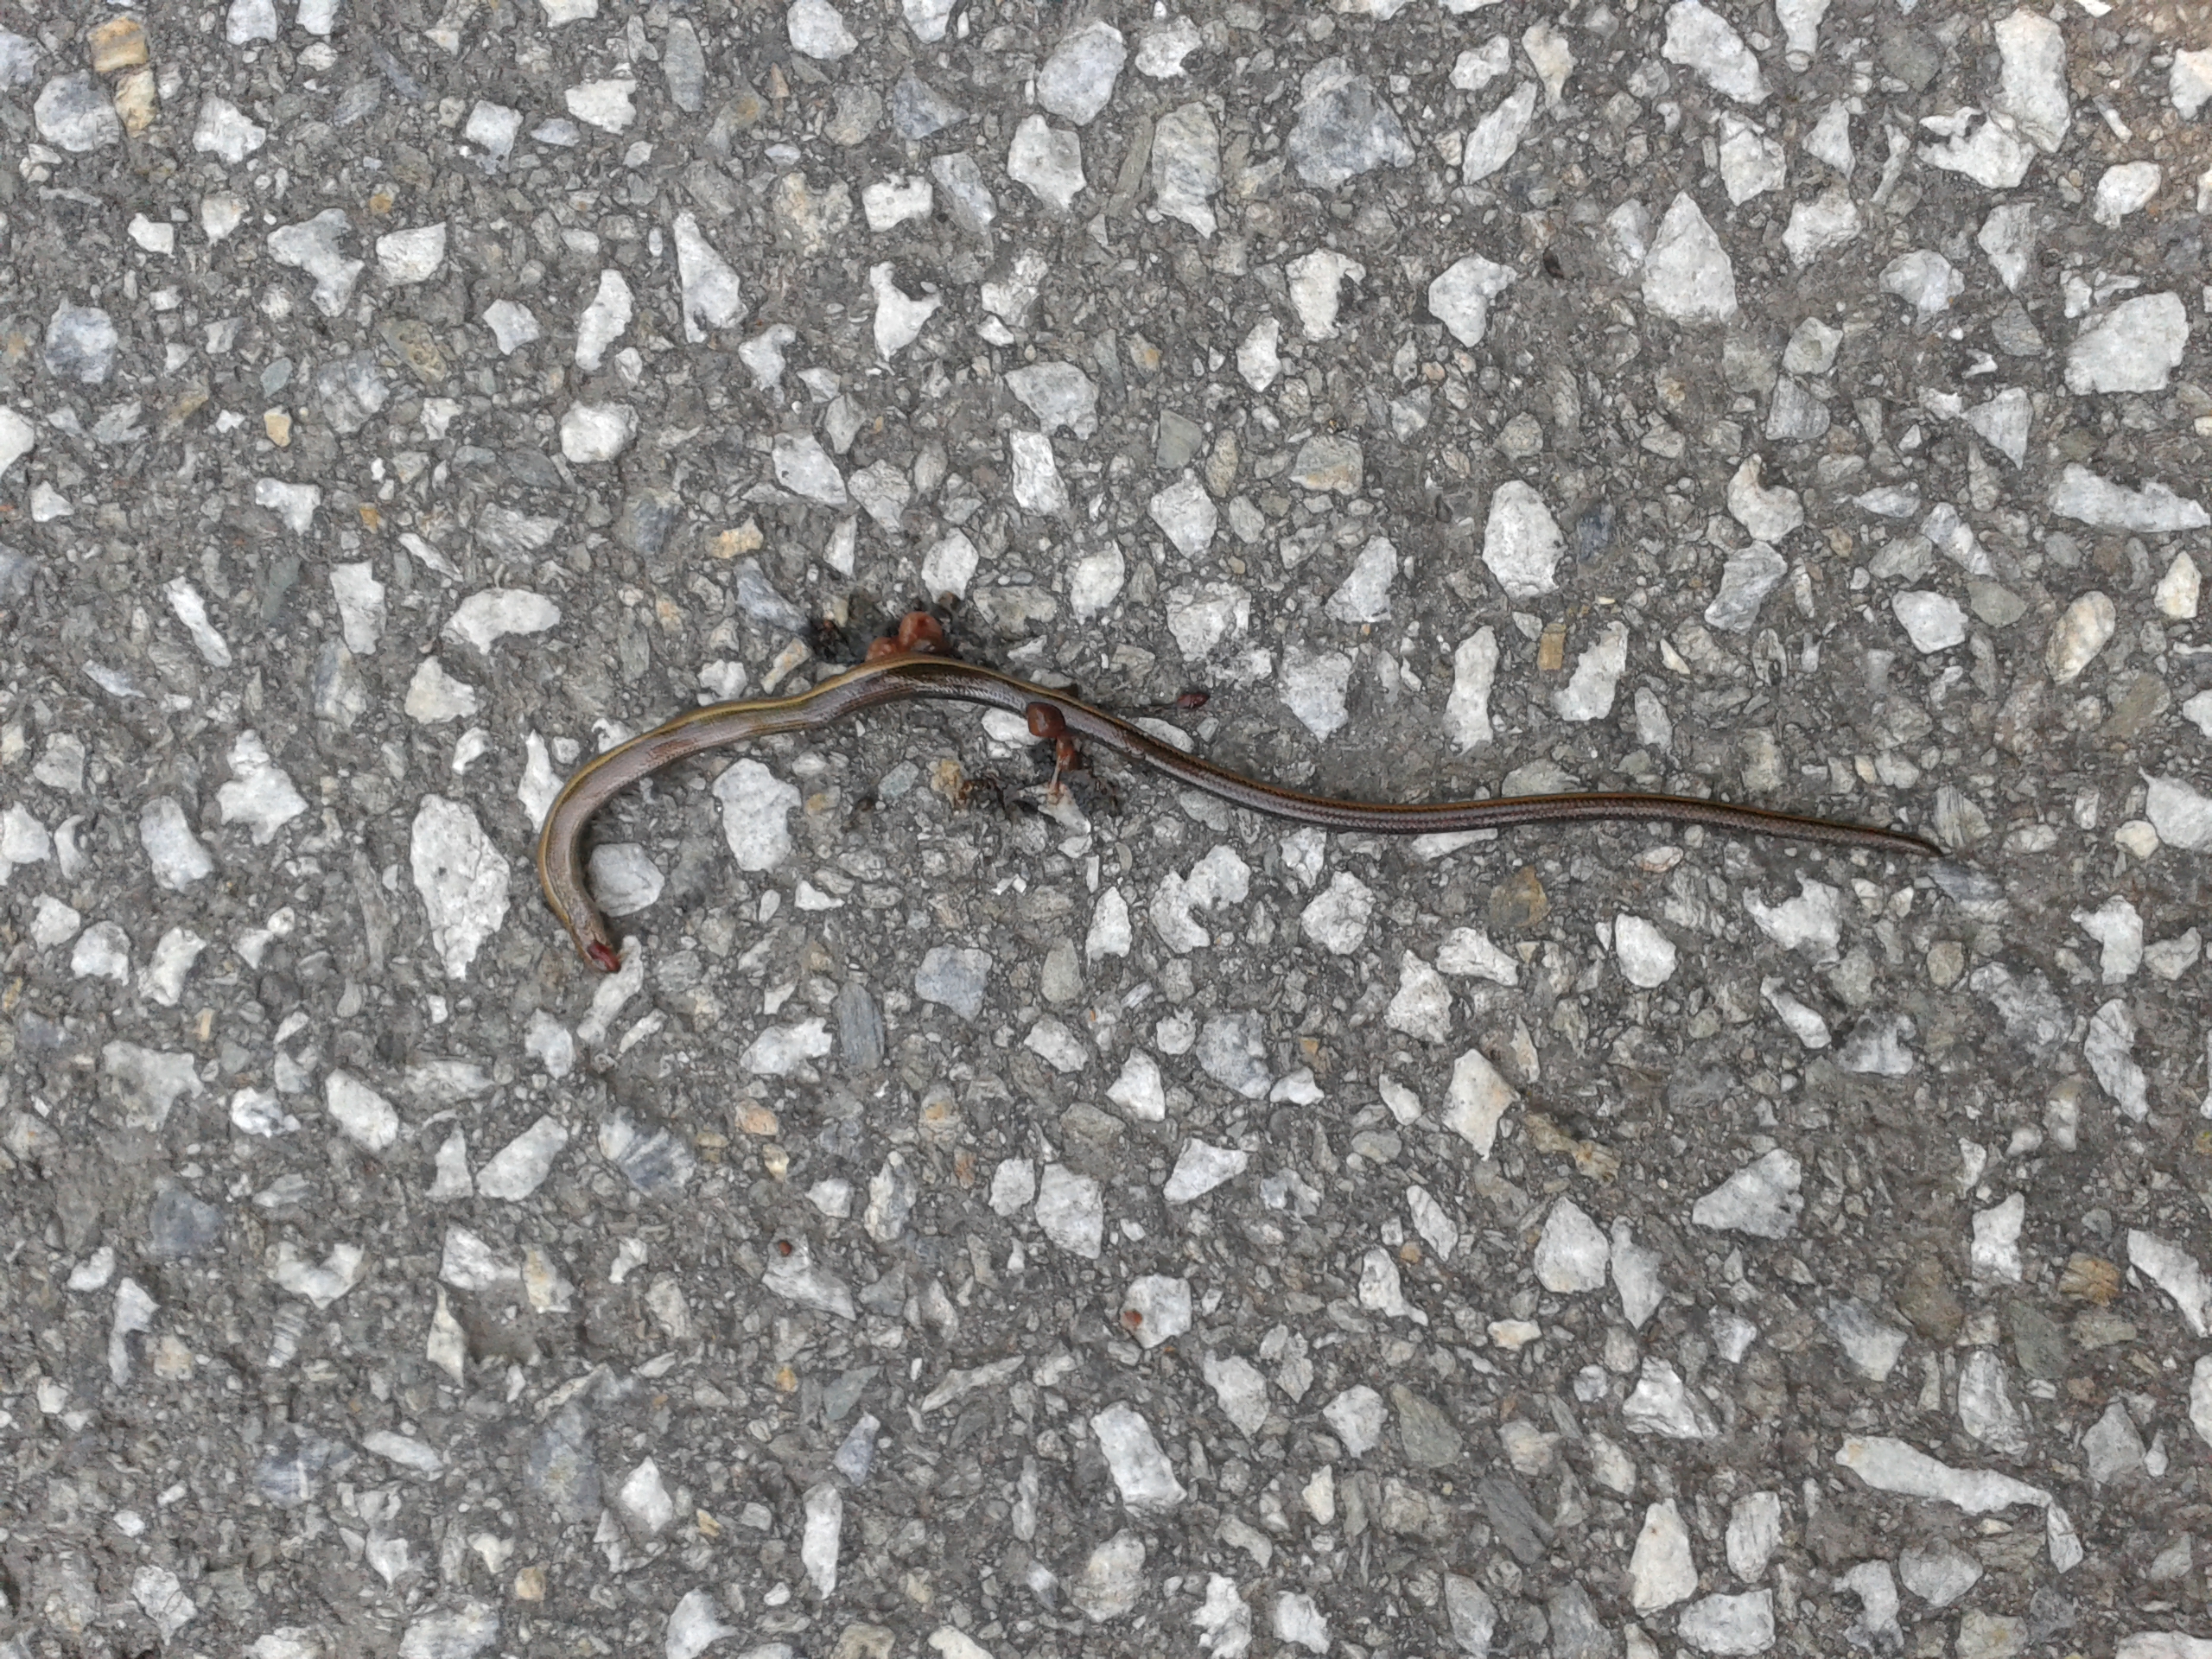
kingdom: Animalia
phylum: Chordata
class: Squamata
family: Anguidae
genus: Anguis
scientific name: Anguis fragilis
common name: Slow worm
